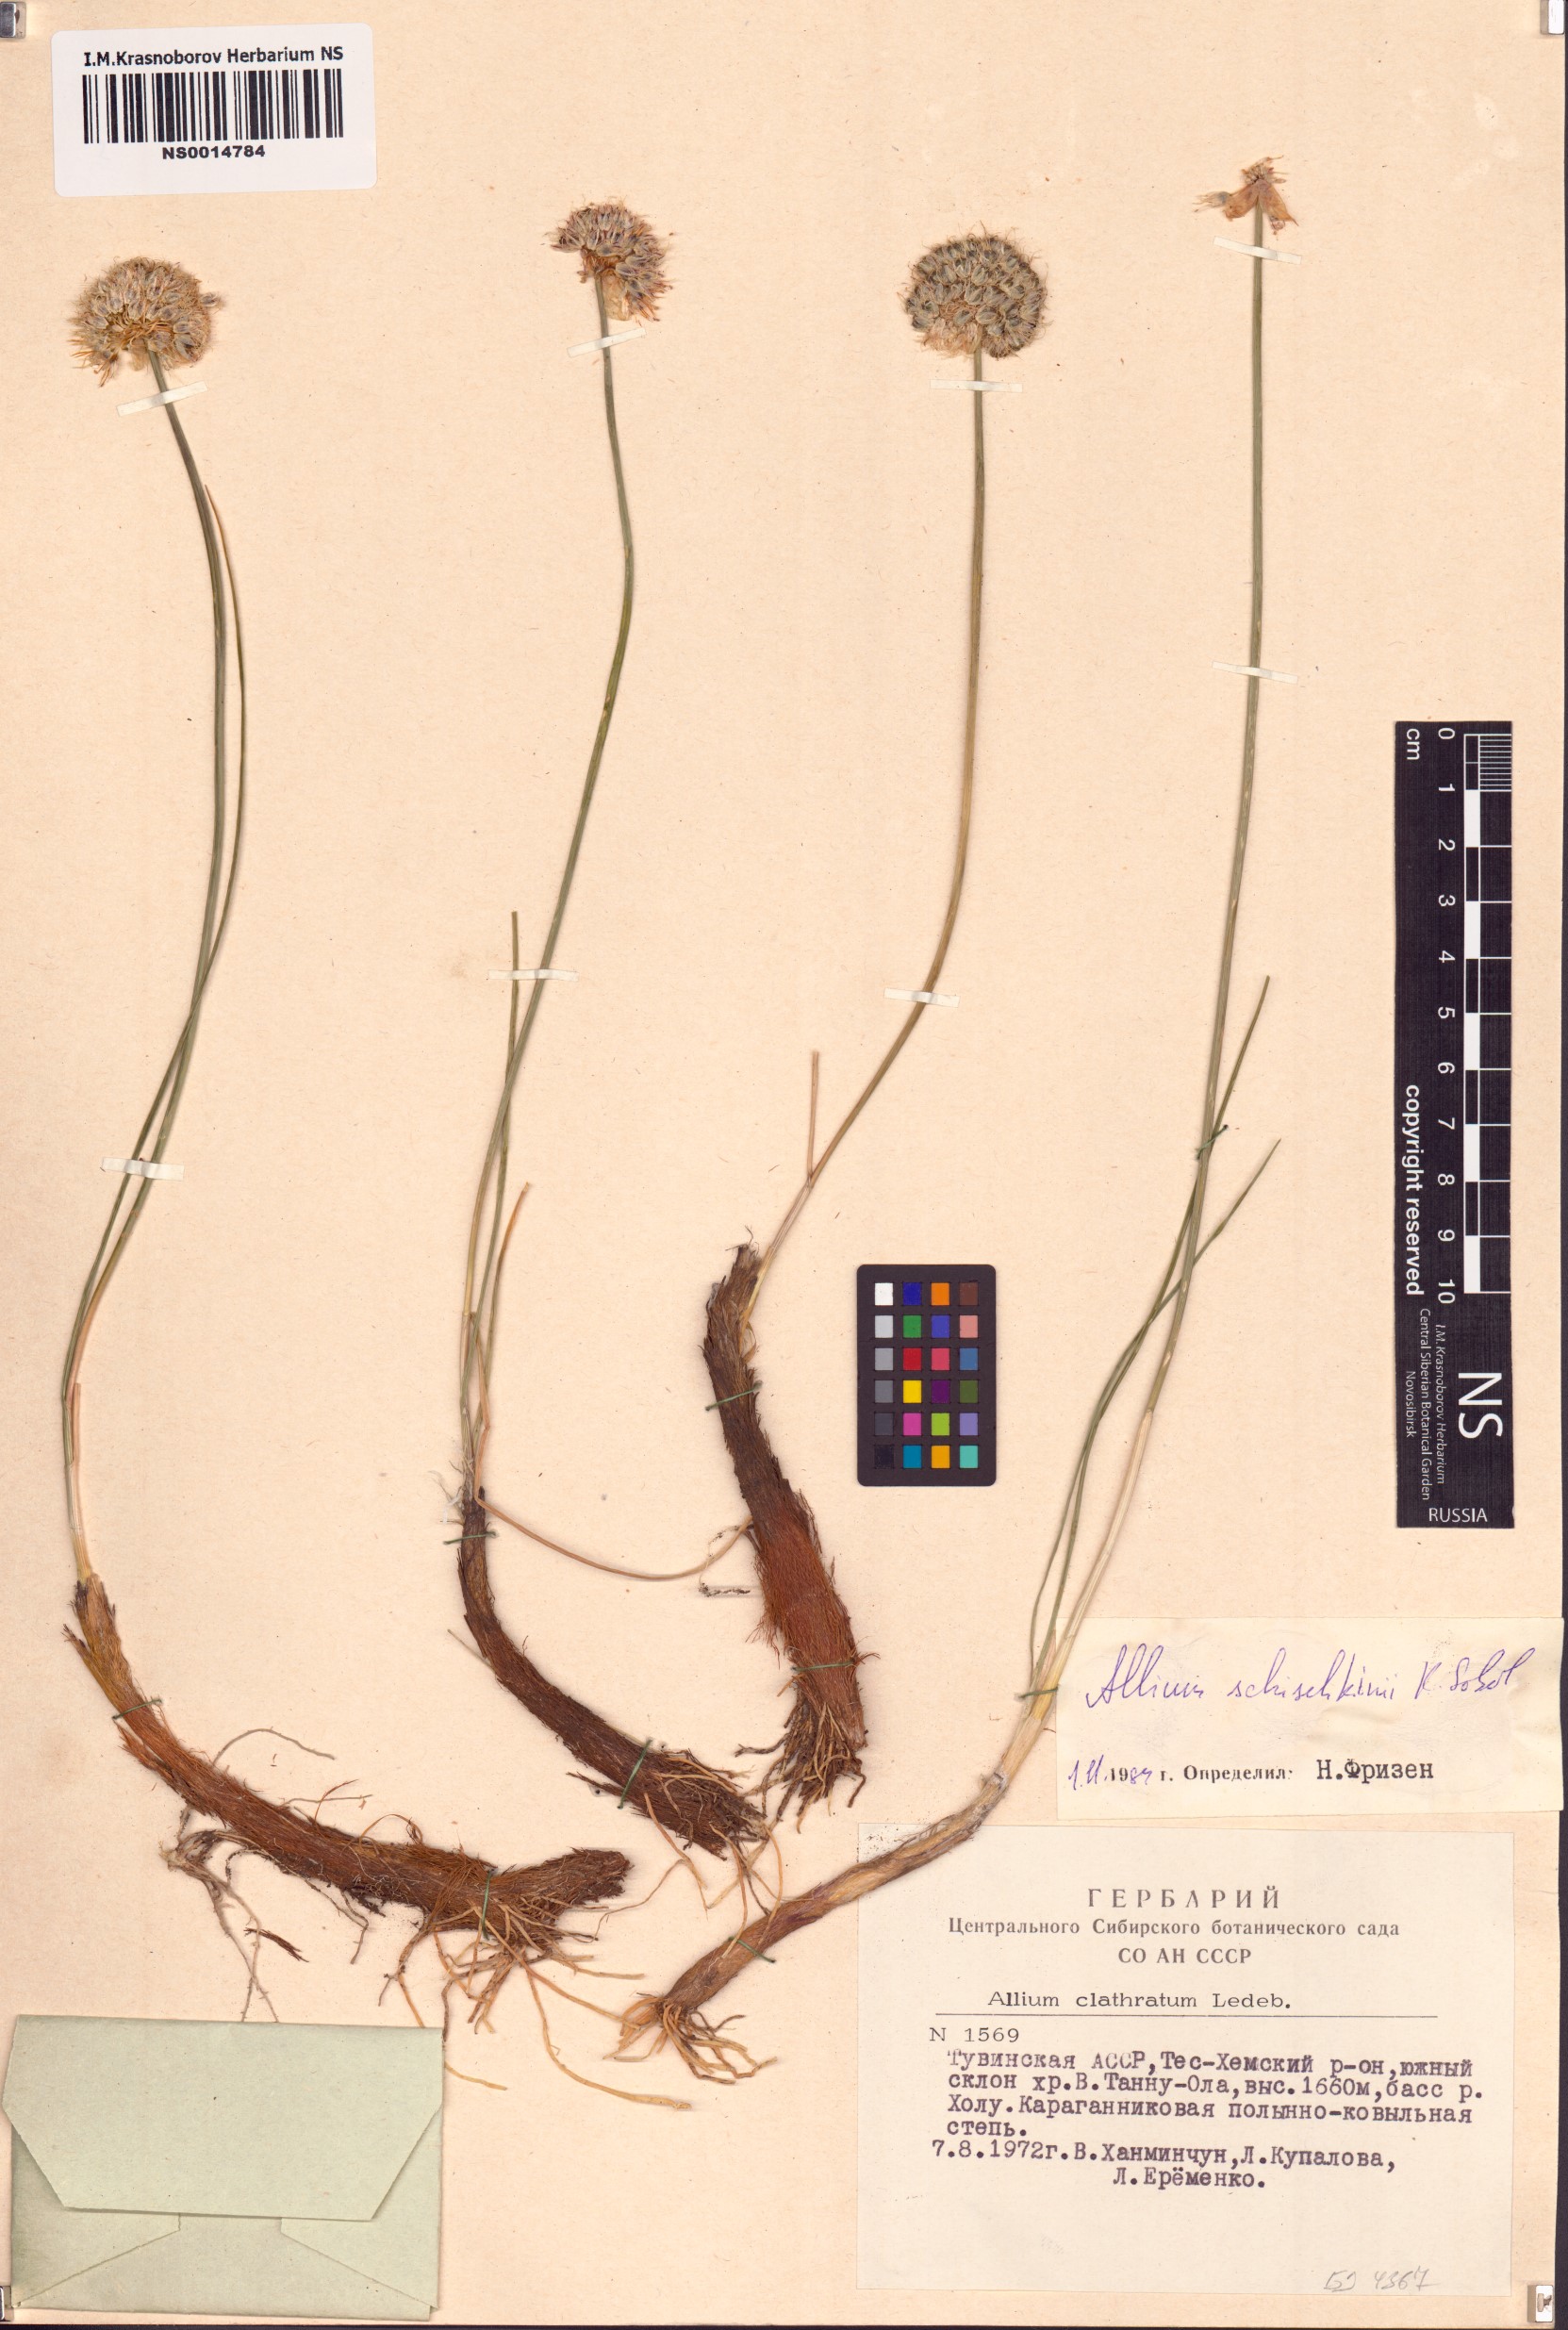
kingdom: Plantae
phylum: Tracheophyta
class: Liliopsida
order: Asparagales
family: Amaryllidaceae
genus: Allium
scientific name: Allium schischkinii
